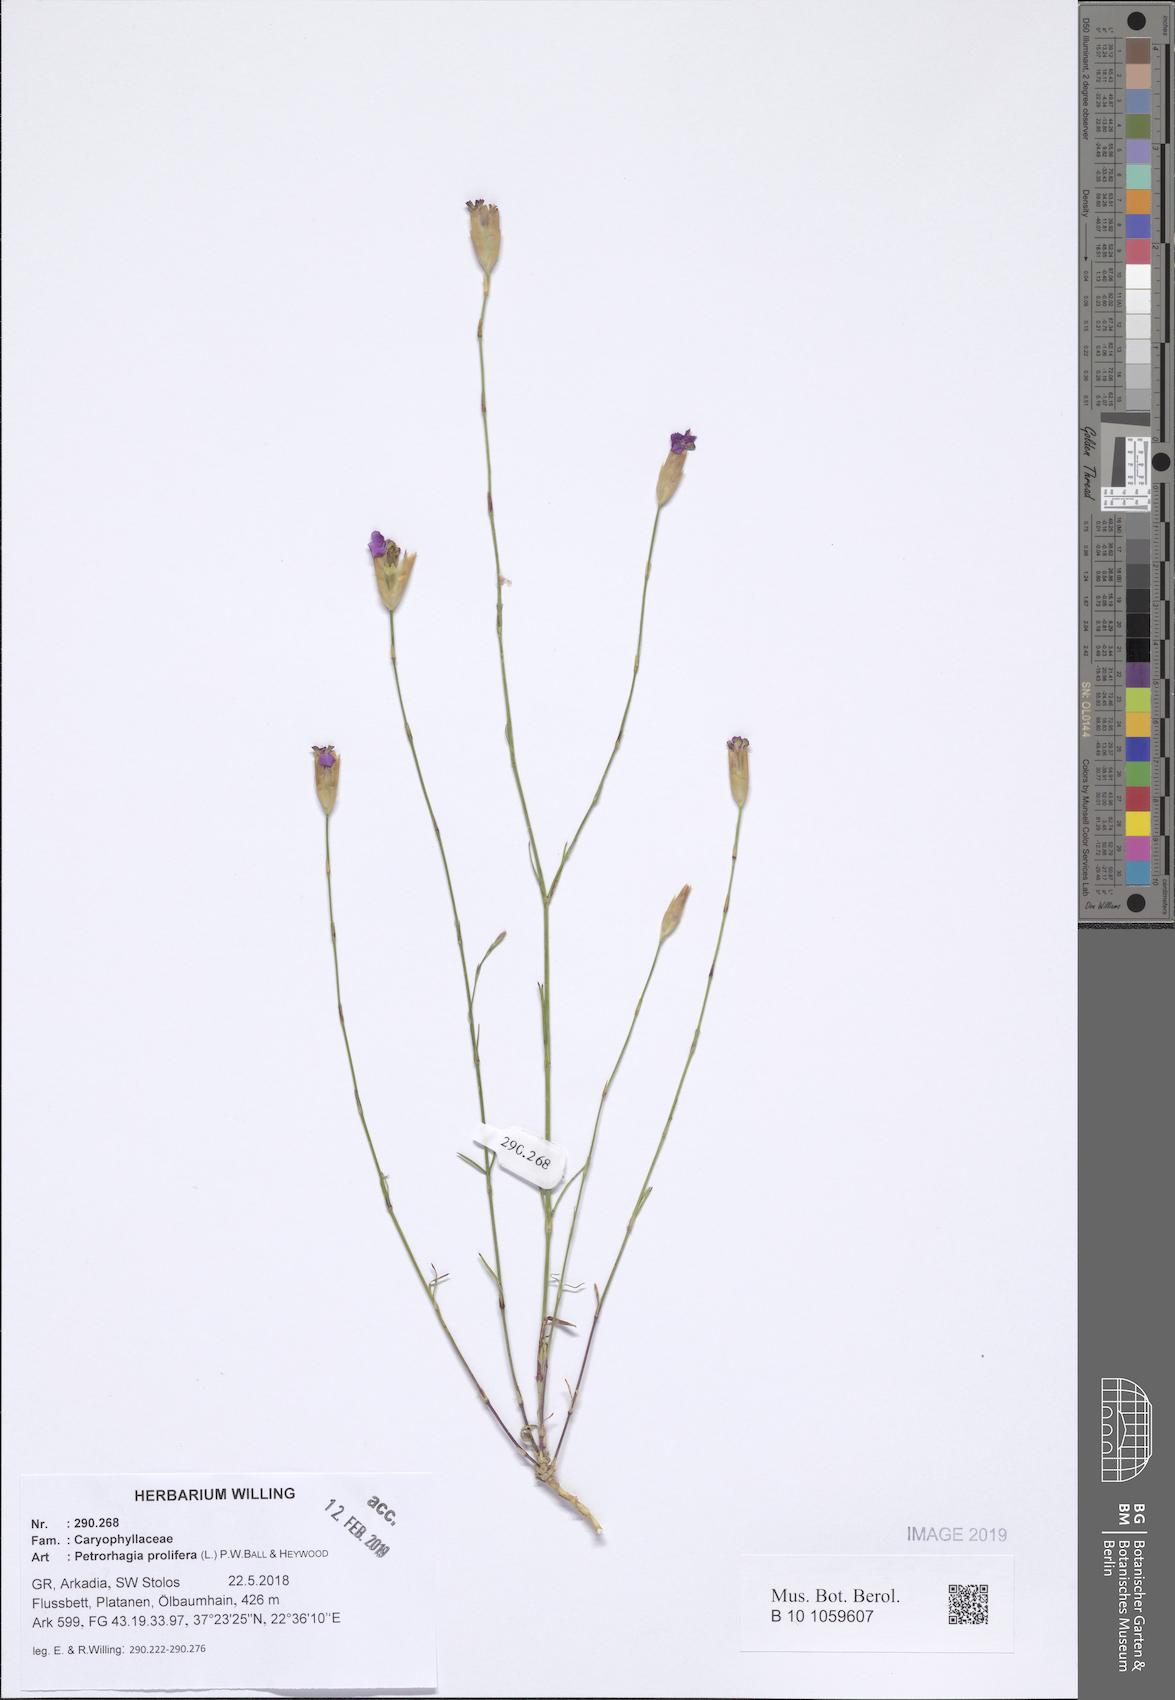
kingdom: Plantae
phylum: Tracheophyta
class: Magnoliopsida
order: Caryophyllales
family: Caryophyllaceae
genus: Petrorhagia
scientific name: Petrorhagia prolifera
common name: Proliferous pink
